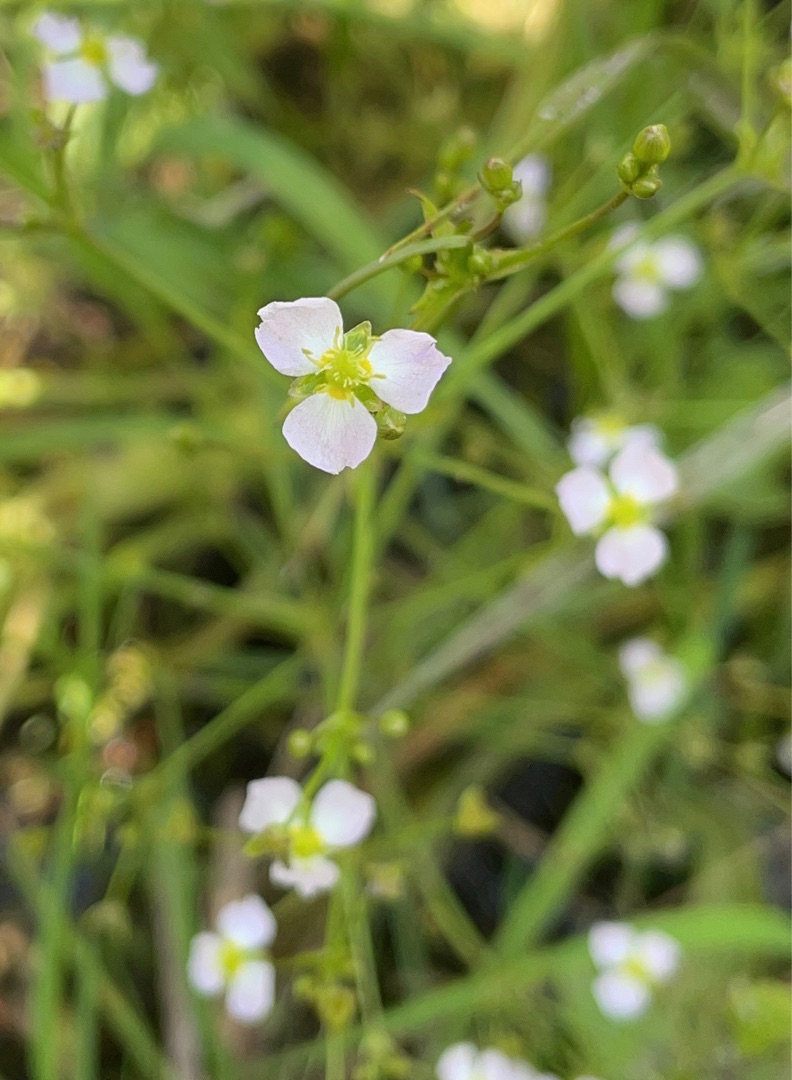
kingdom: Plantae
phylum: Tracheophyta
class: Liliopsida
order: Alismatales
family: Alismataceae
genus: Alisma
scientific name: Alisma plantago-aquatica
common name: Vejbred-skeblad
